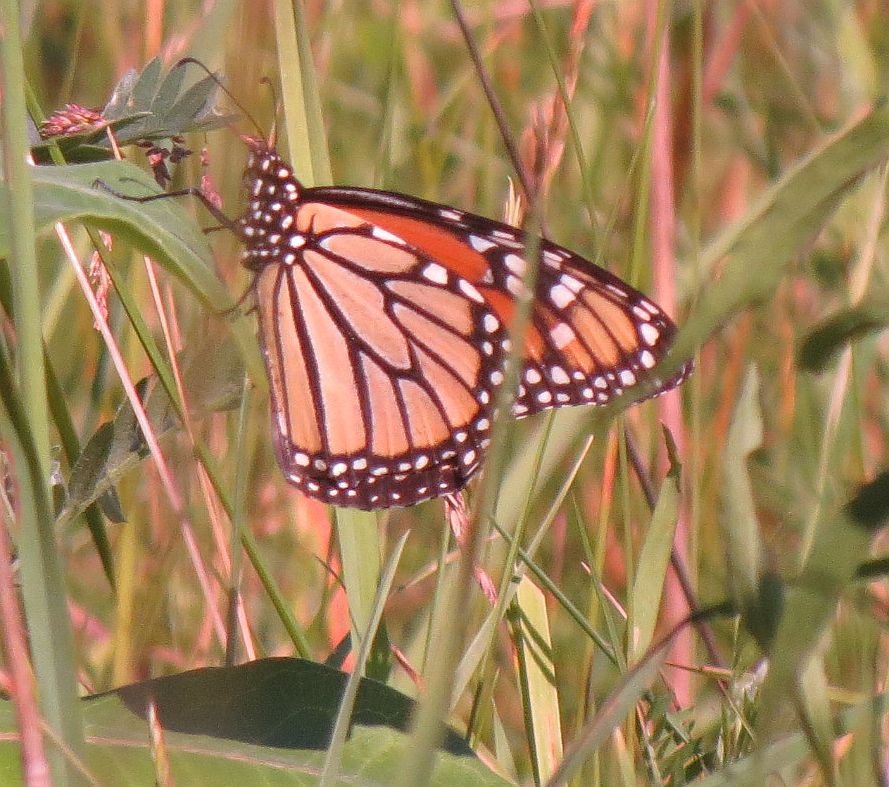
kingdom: Animalia
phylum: Arthropoda
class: Insecta
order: Lepidoptera
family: Nymphalidae
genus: Danaus
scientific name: Danaus plexippus
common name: Monarch
